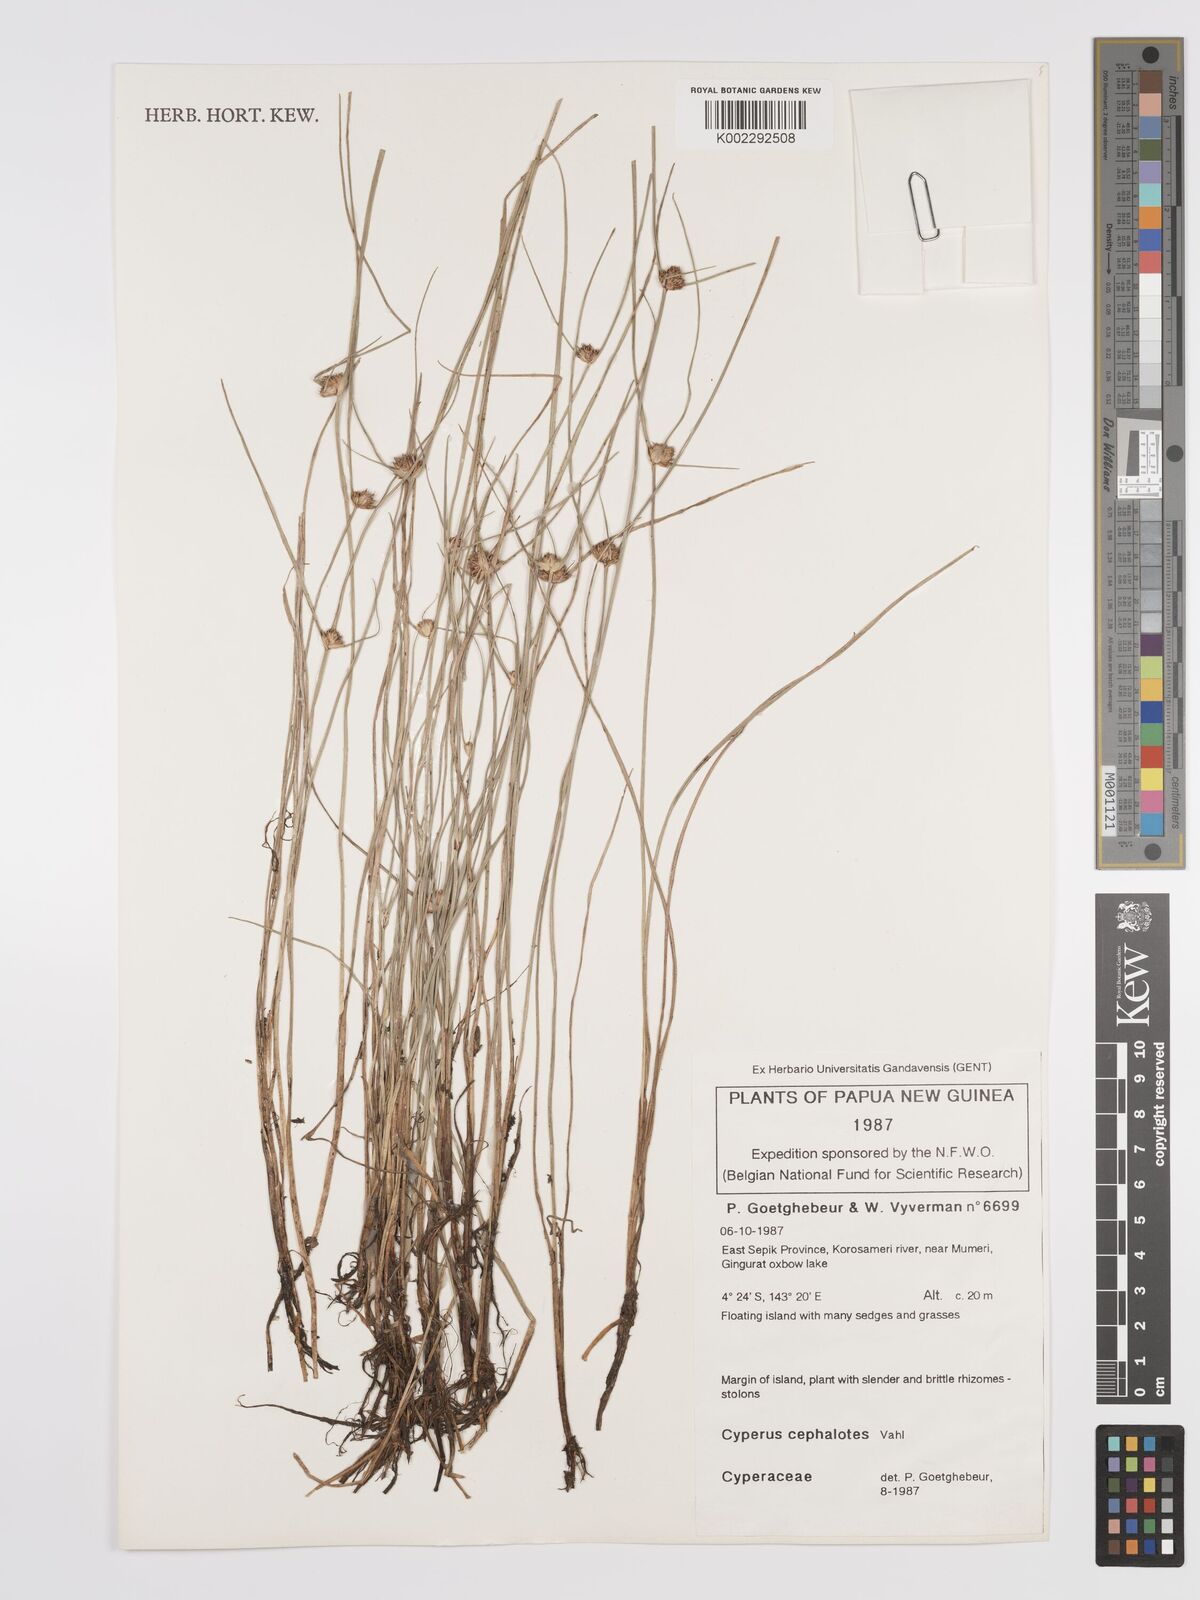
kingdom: Plantae
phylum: Tracheophyta
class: Liliopsida
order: Poales
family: Cyperaceae
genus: Cyperus
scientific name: Cyperus cephalotes
